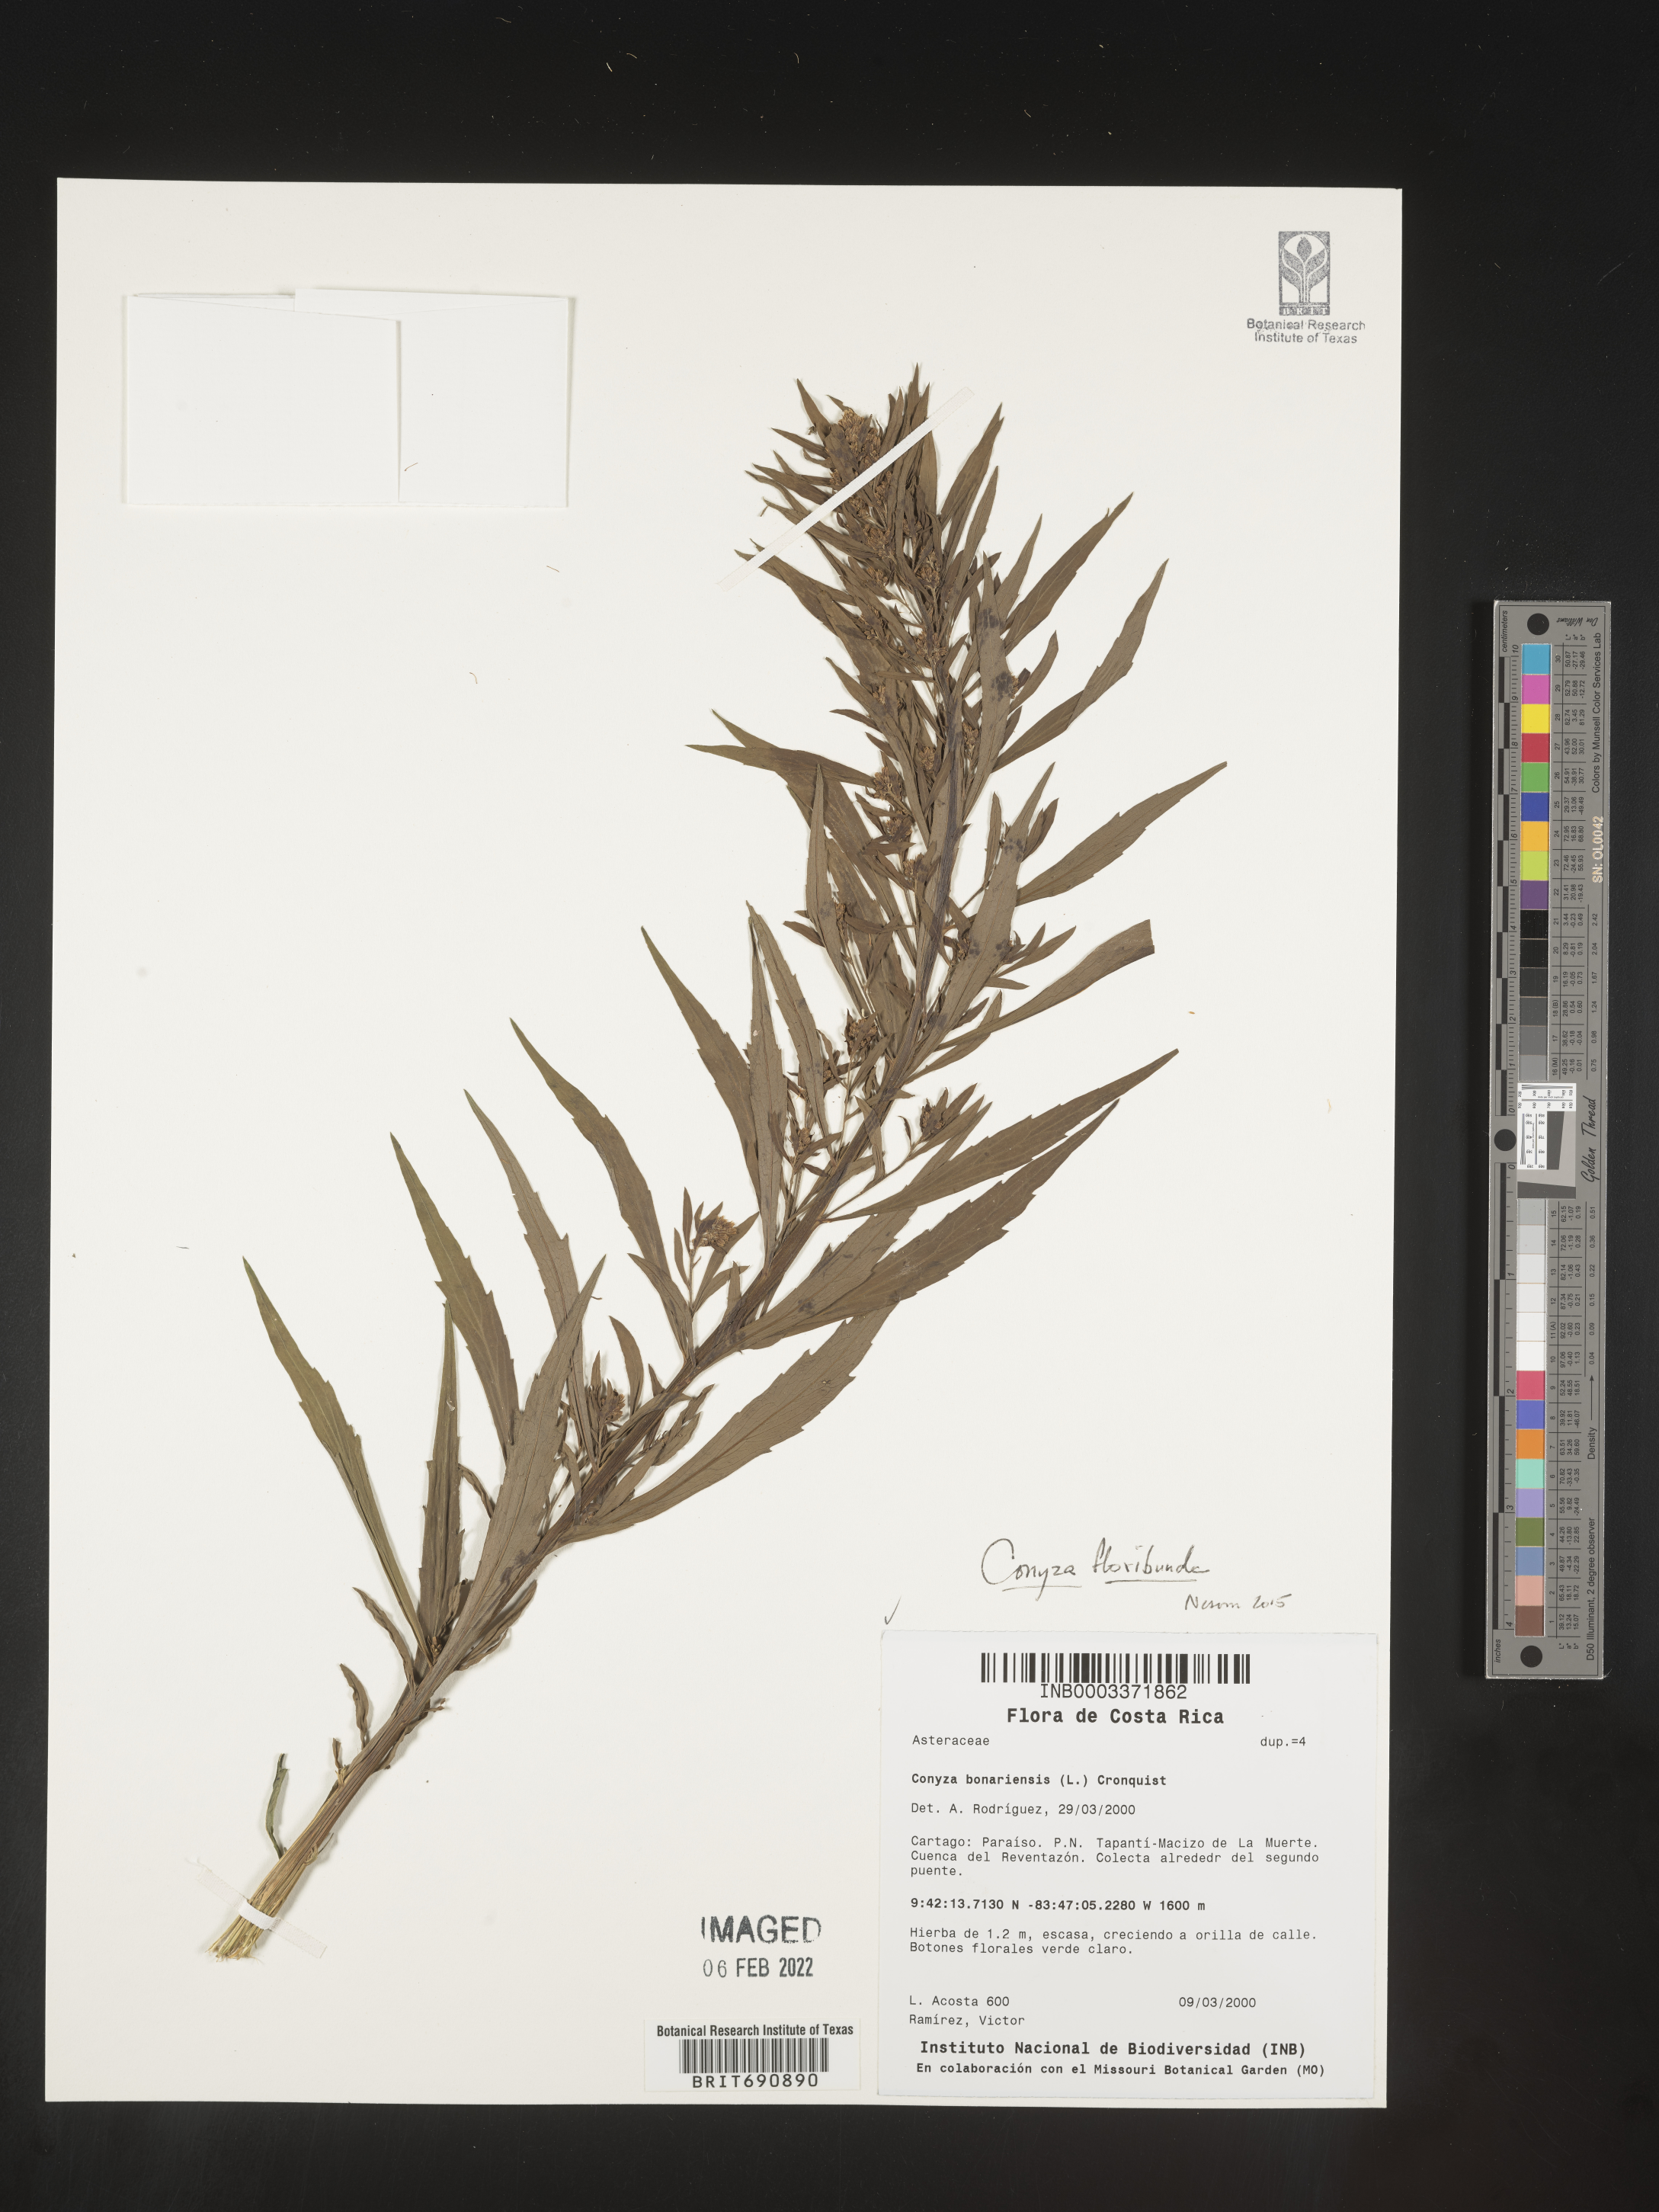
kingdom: Plantae
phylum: Tracheophyta
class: Magnoliopsida
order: Asterales
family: Asteraceae
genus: Erigeron
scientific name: Erigeron floribundus
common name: Bilbao fleabane
